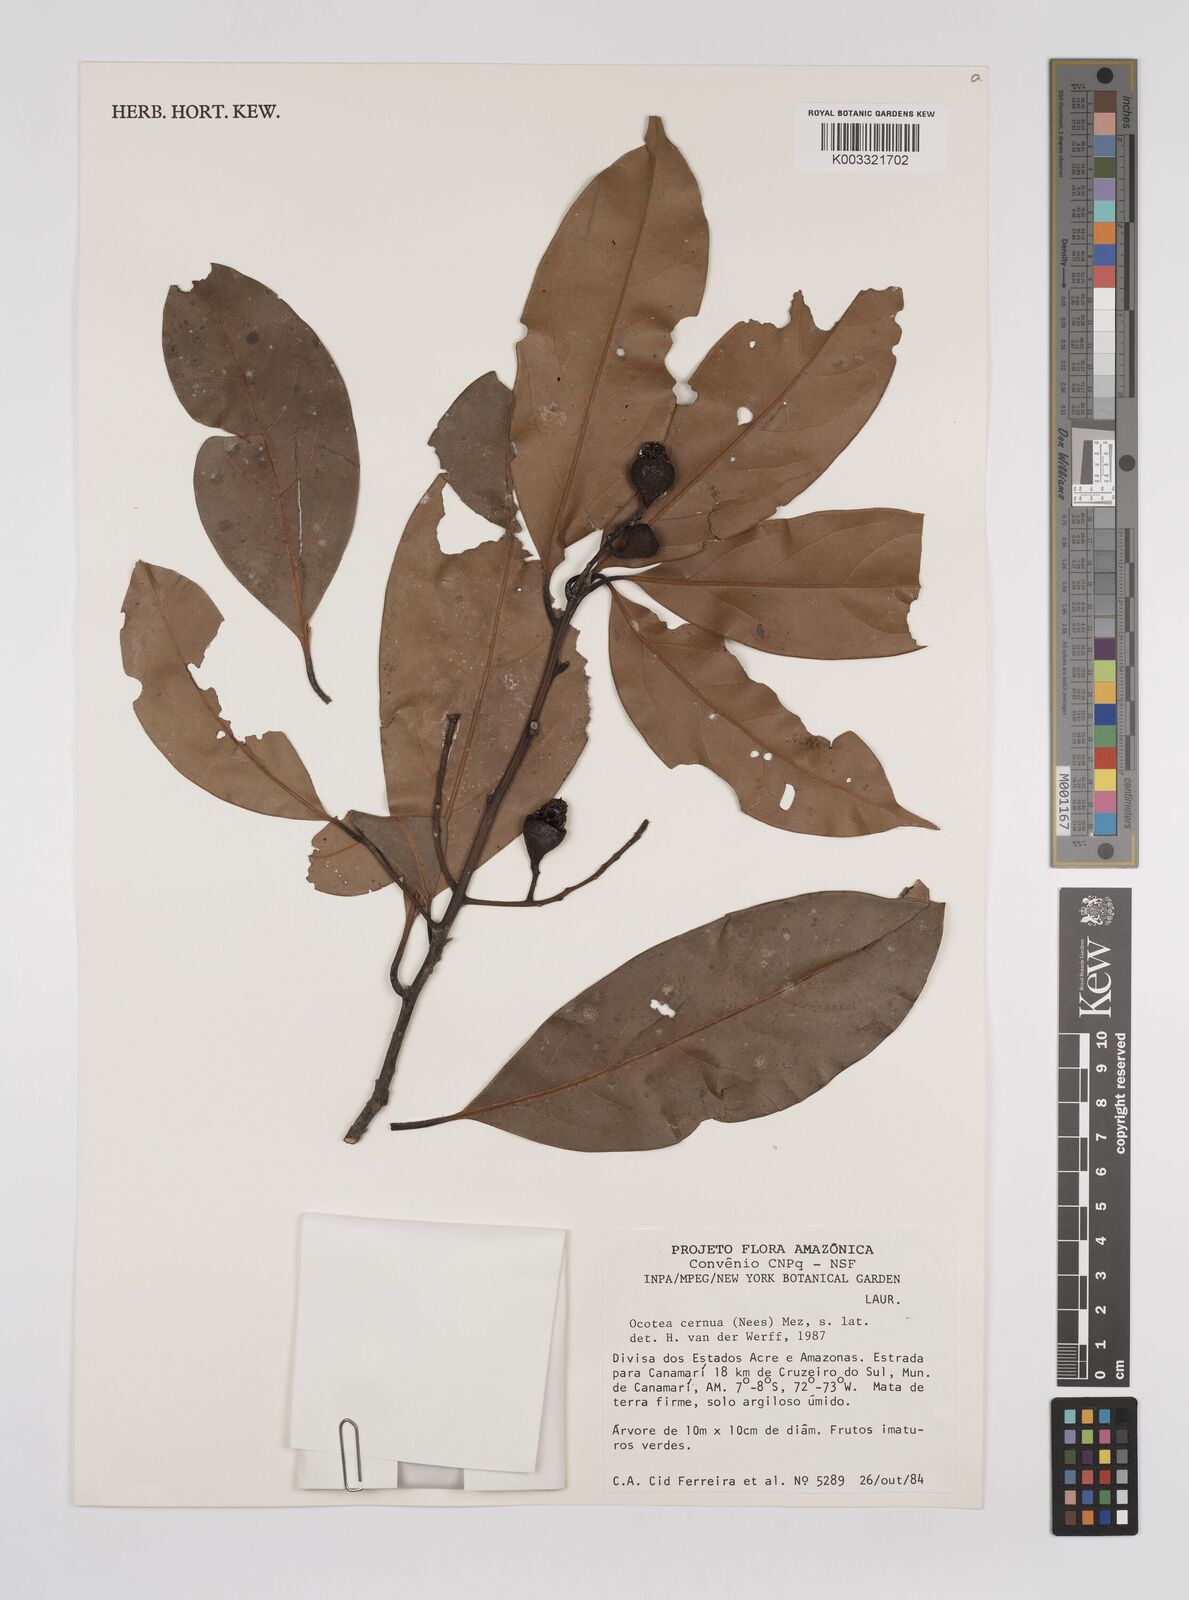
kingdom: Plantae
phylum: Tracheophyta
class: Magnoliopsida
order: Laurales
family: Lauraceae
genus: Ocotea
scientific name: Ocotea leptobotra
